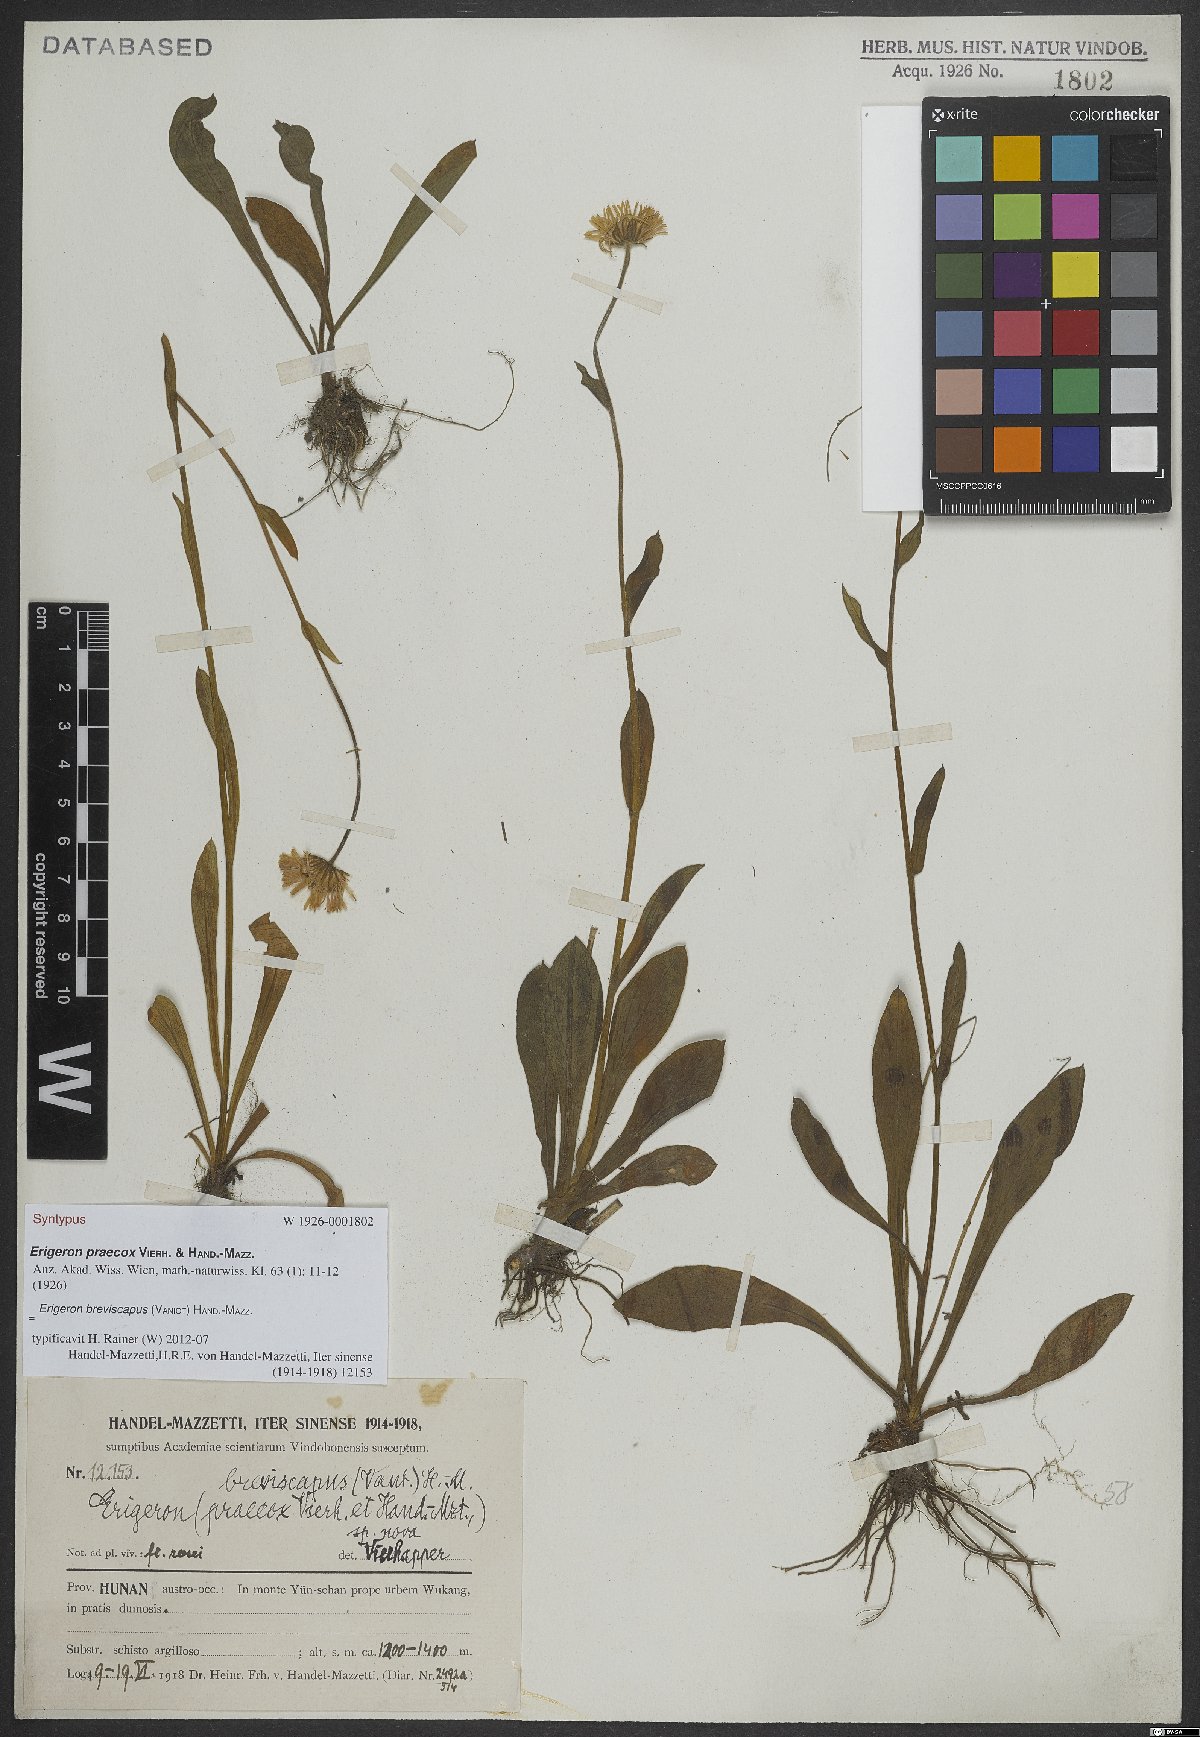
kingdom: Plantae
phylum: Tracheophyta
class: Magnoliopsida
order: Asterales
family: Asteraceae
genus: Erigeron
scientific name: Erigeron breviscapus
